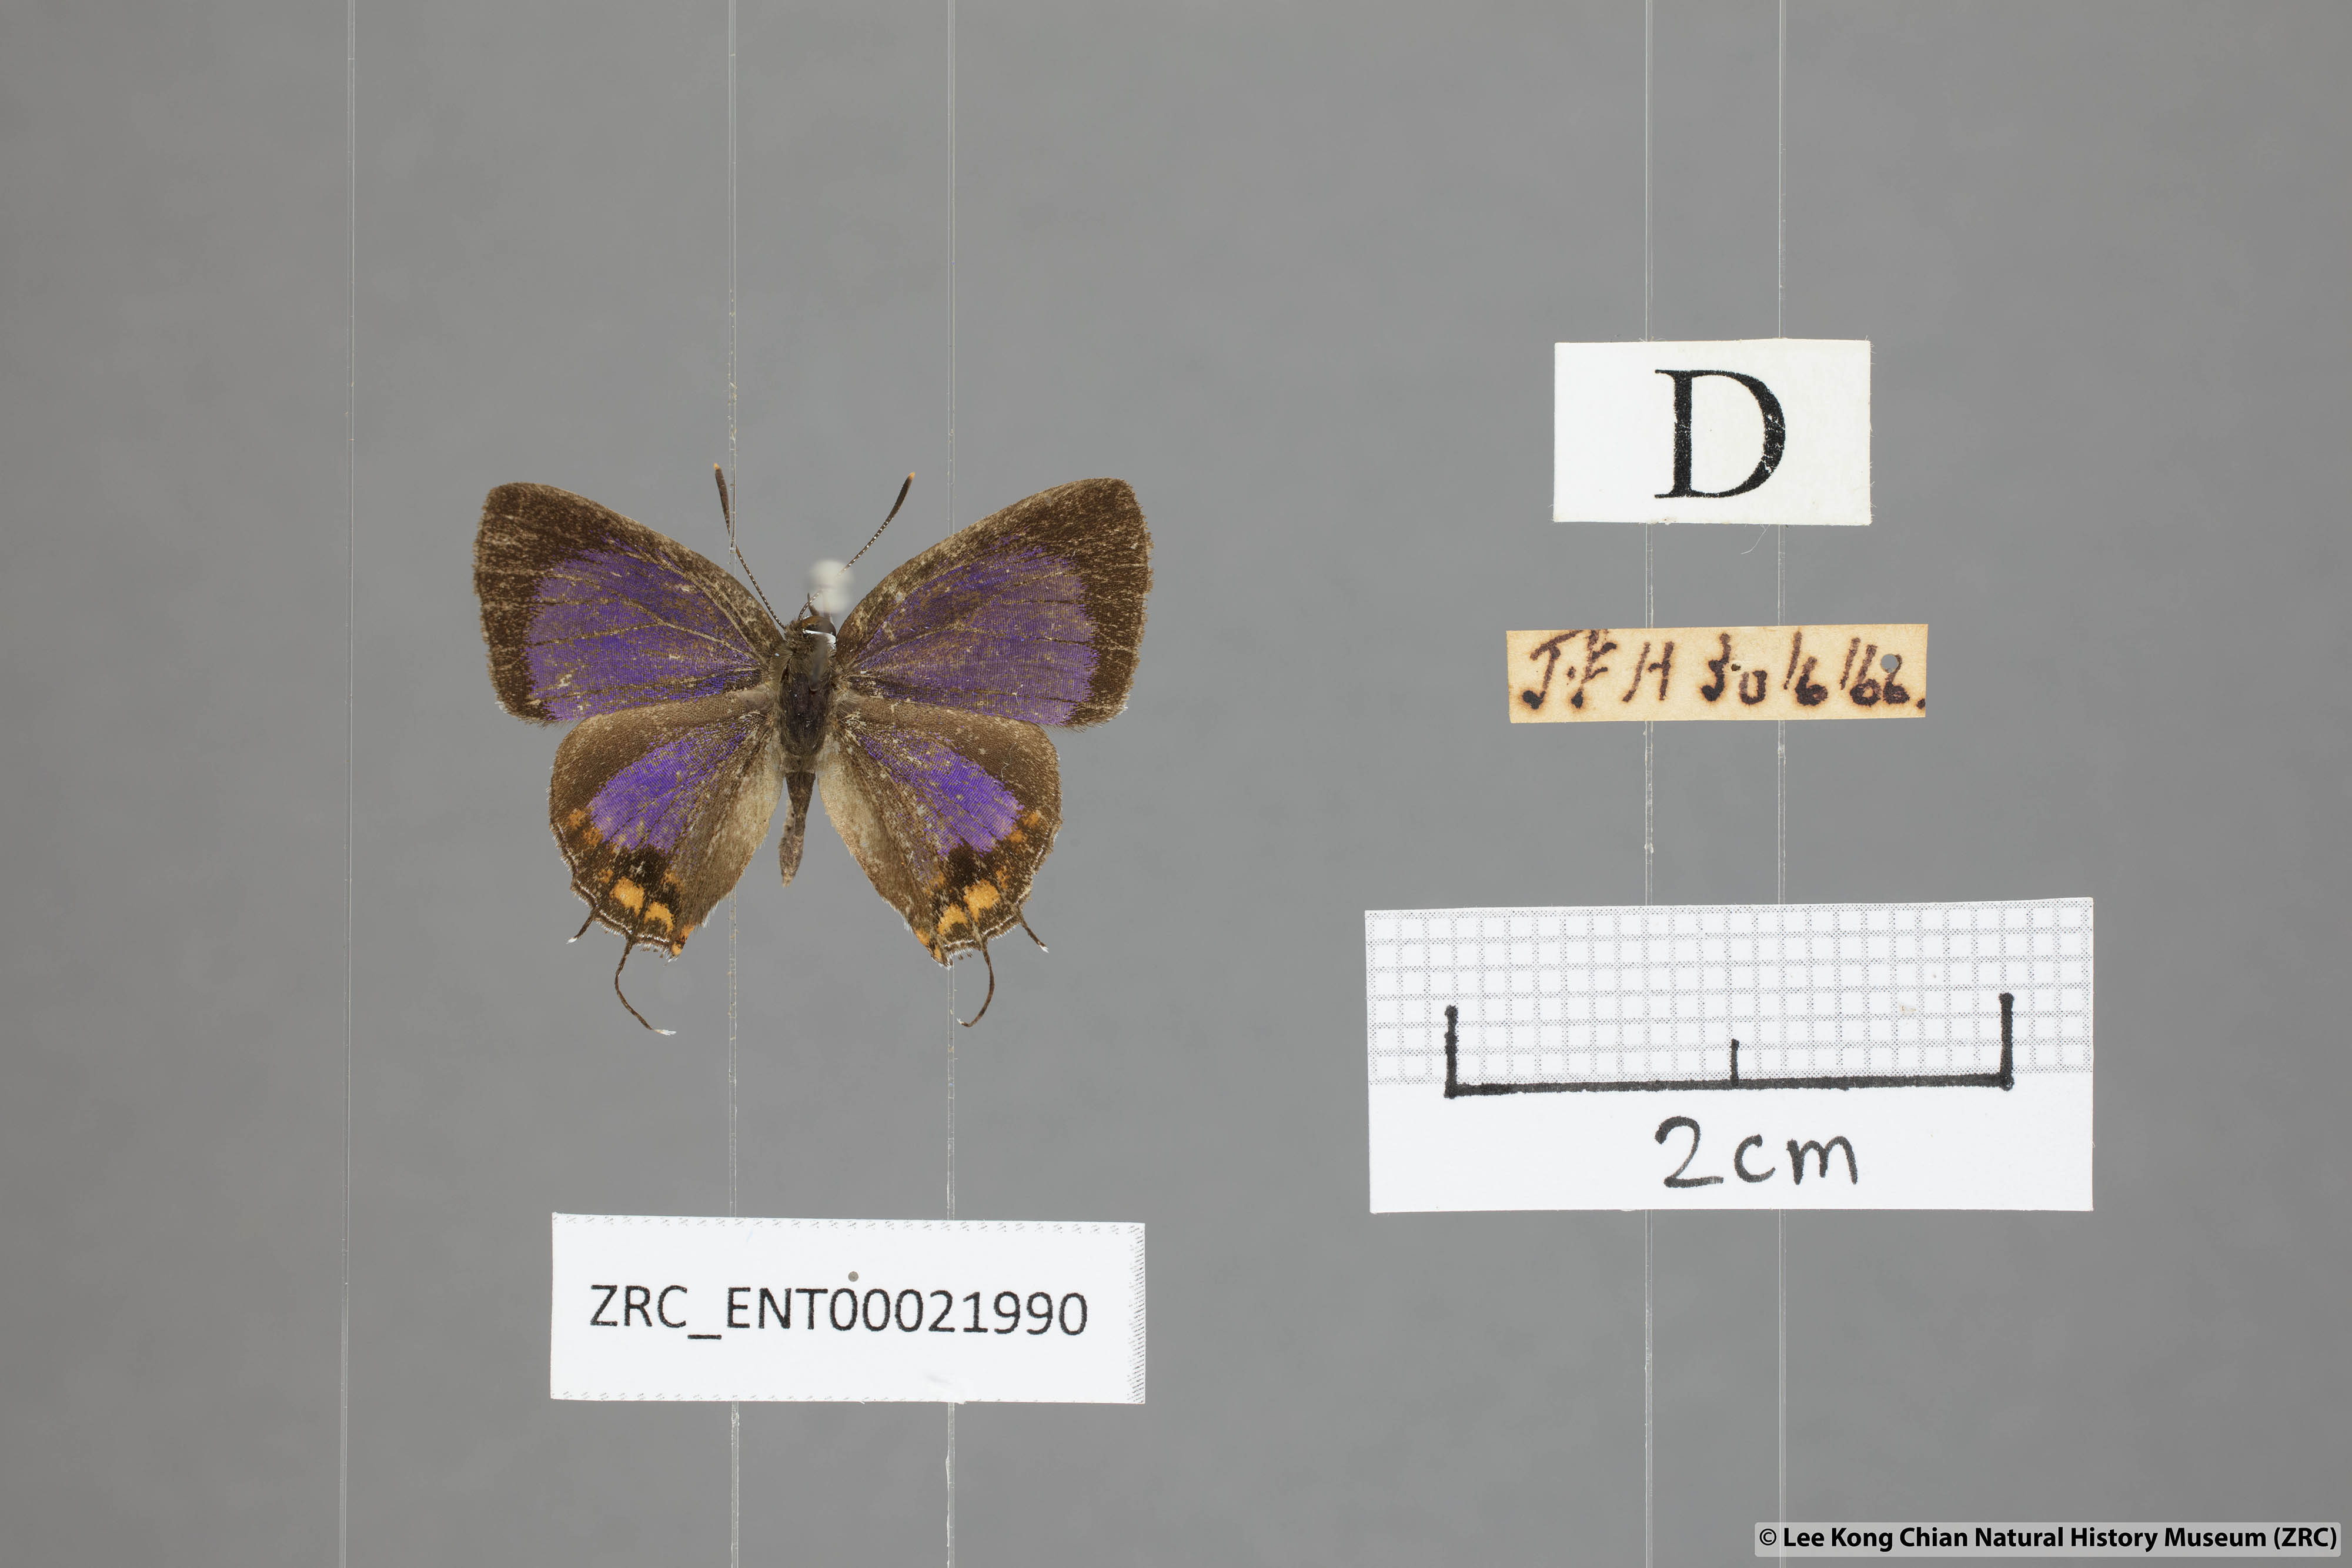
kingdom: Animalia
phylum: Arthropoda
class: Insecta
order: Lepidoptera
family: Lycaenidae
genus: Semanga
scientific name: Semanga superba
